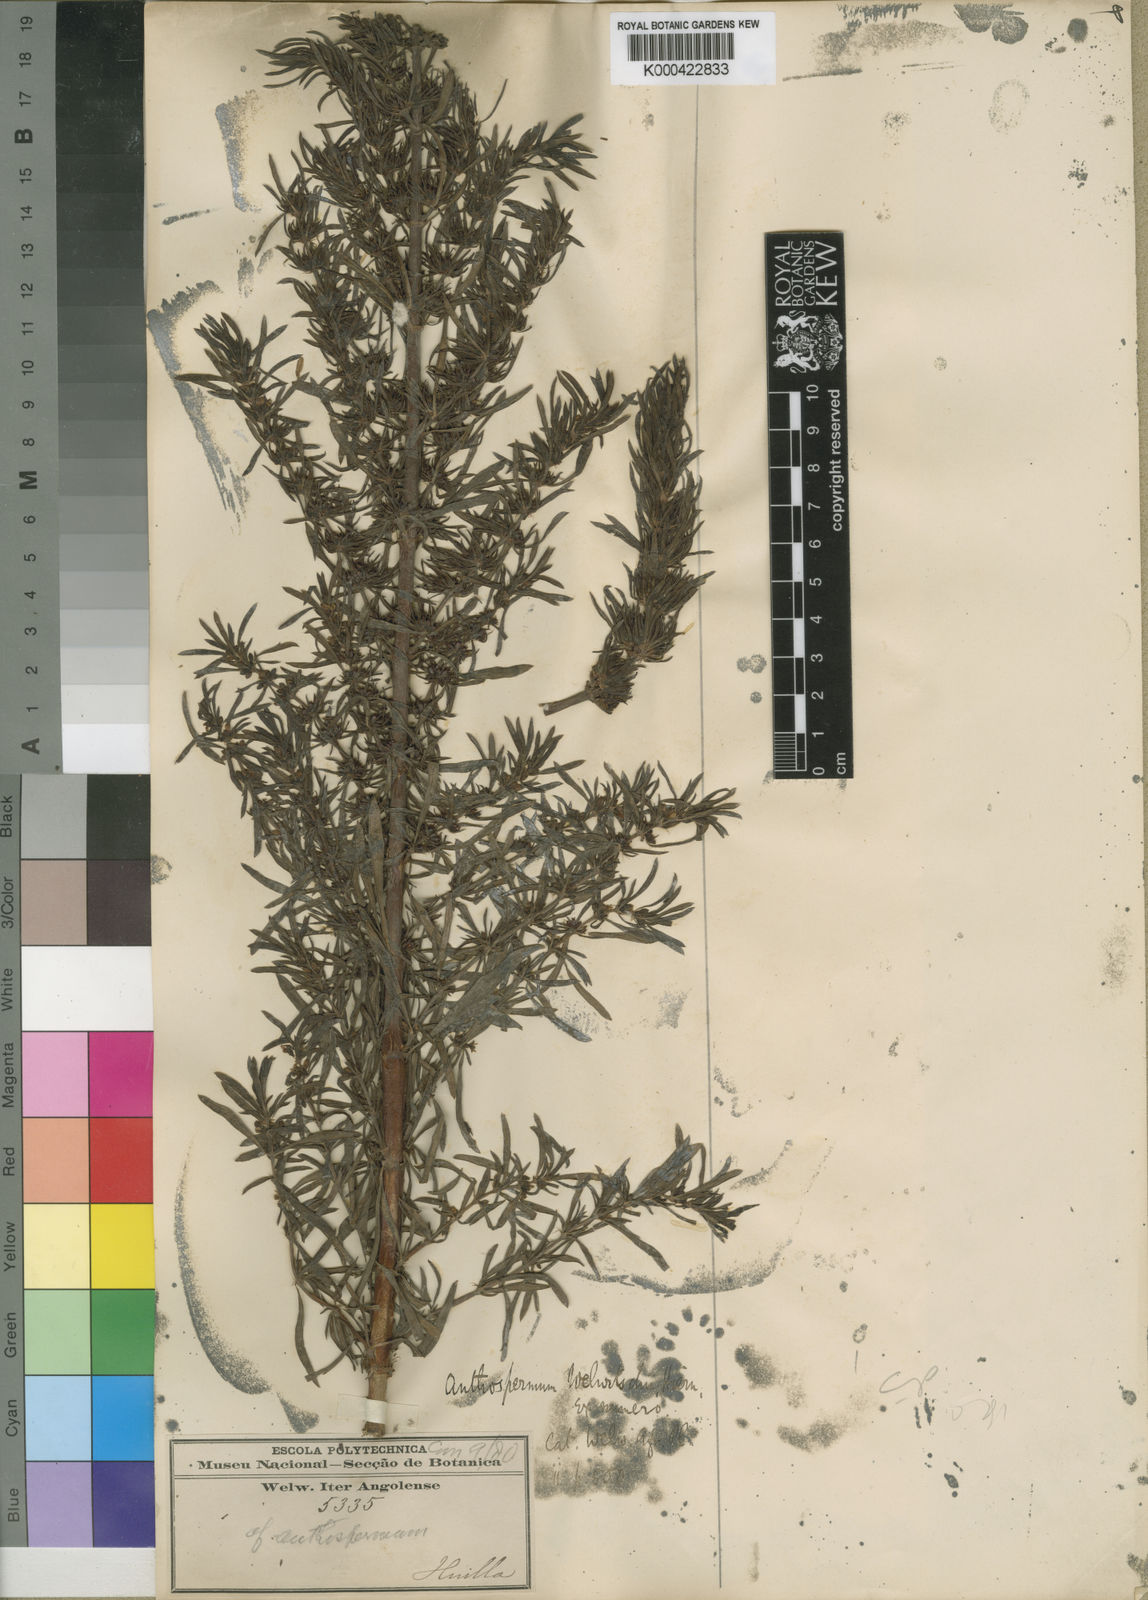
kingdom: Plantae
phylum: Tracheophyta
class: Magnoliopsida
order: Gentianales
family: Rubiaceae
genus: Anthospermum
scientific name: Anthospermum welwitschii
